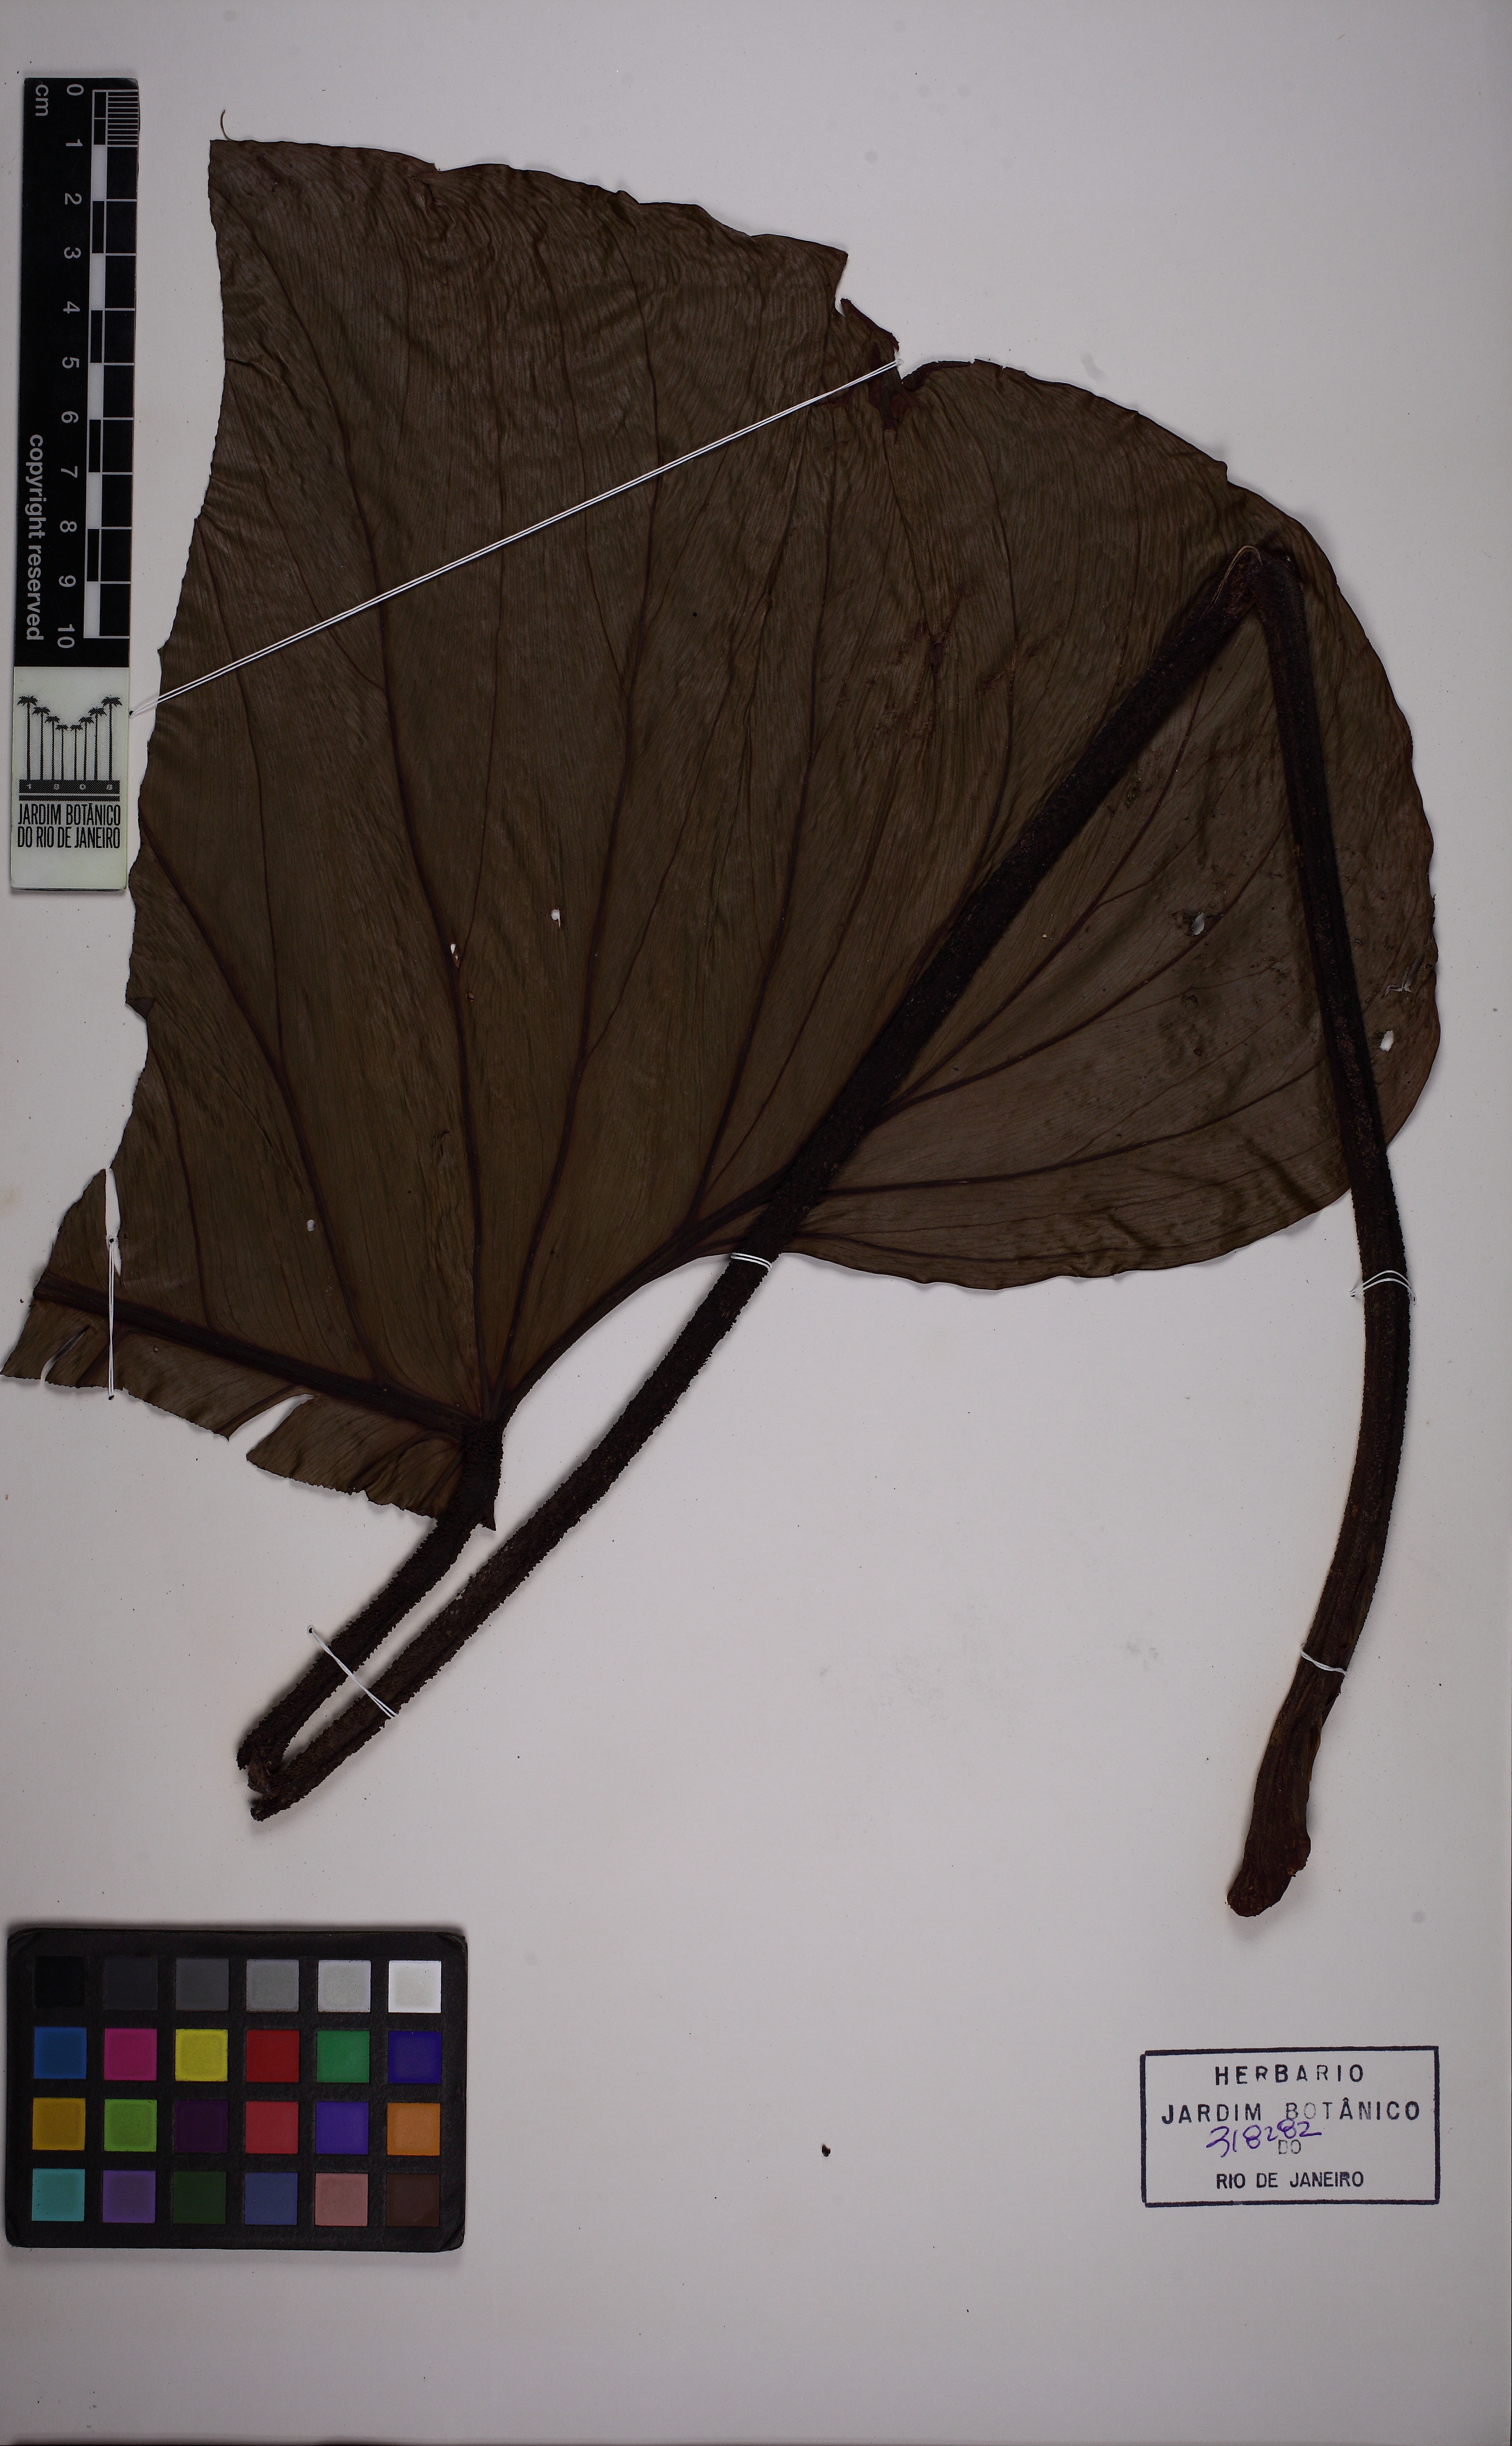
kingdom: Plantae
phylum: Tracheophyta
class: Liliopsida
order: Alismatales
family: Araceae
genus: Philodendron
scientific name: Philodendron ornatum
